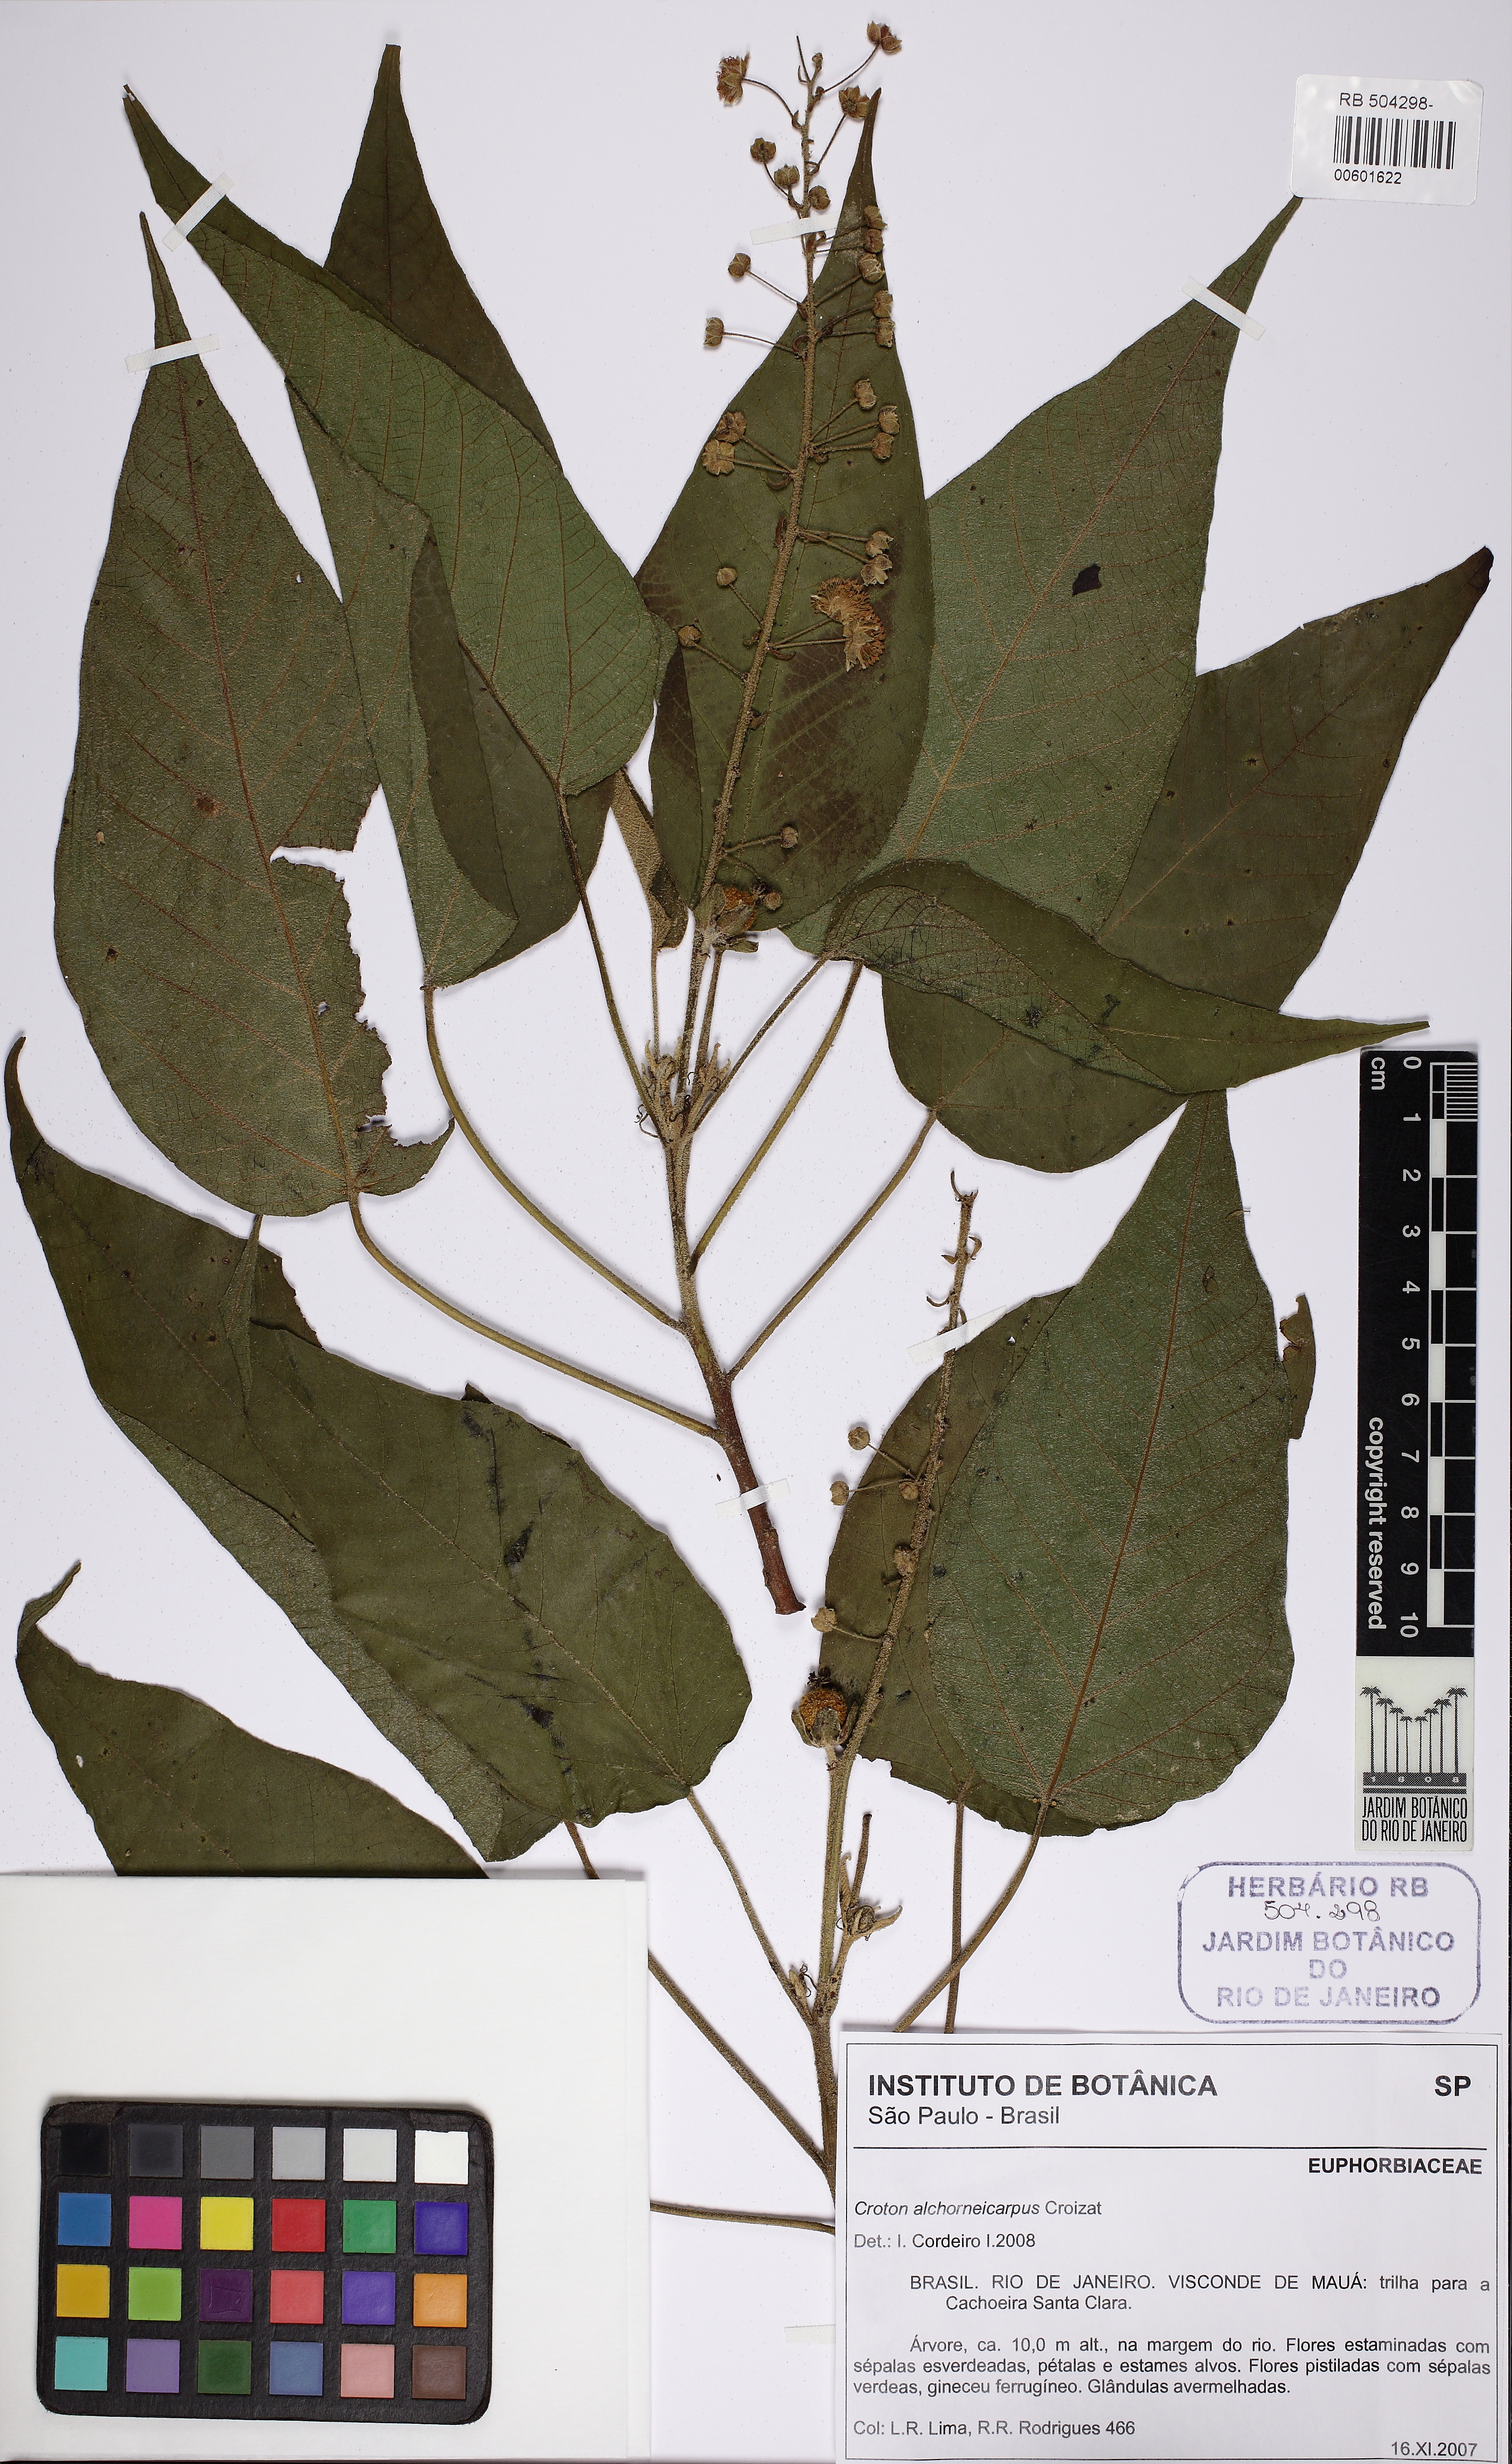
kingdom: Plantae
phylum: Tracheophyta
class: Magnoliopsida
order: Malpighiales
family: Euphorbiaceae
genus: Croton
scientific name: Croton
